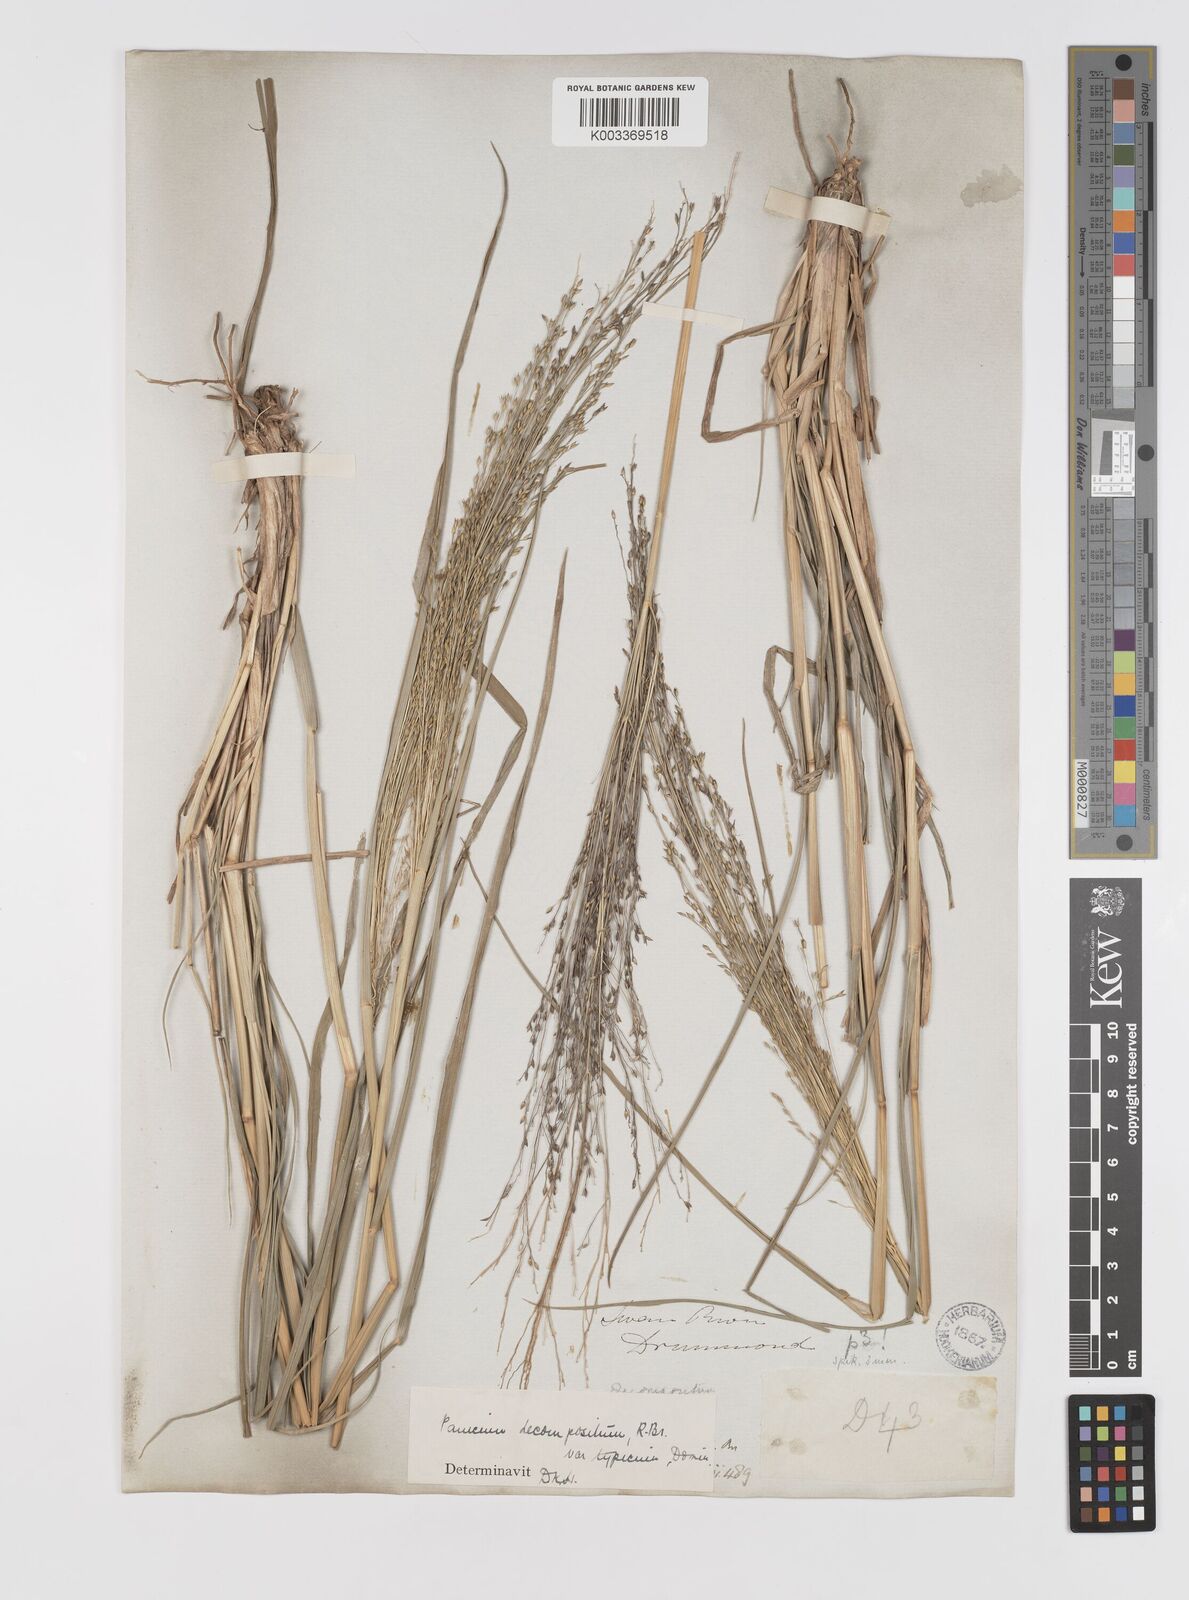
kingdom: Plantae
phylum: Tracheophyta
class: Liliopsida
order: Poales
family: Poaceae
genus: Panicum
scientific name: Panicum decompositum
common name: Australian millet
